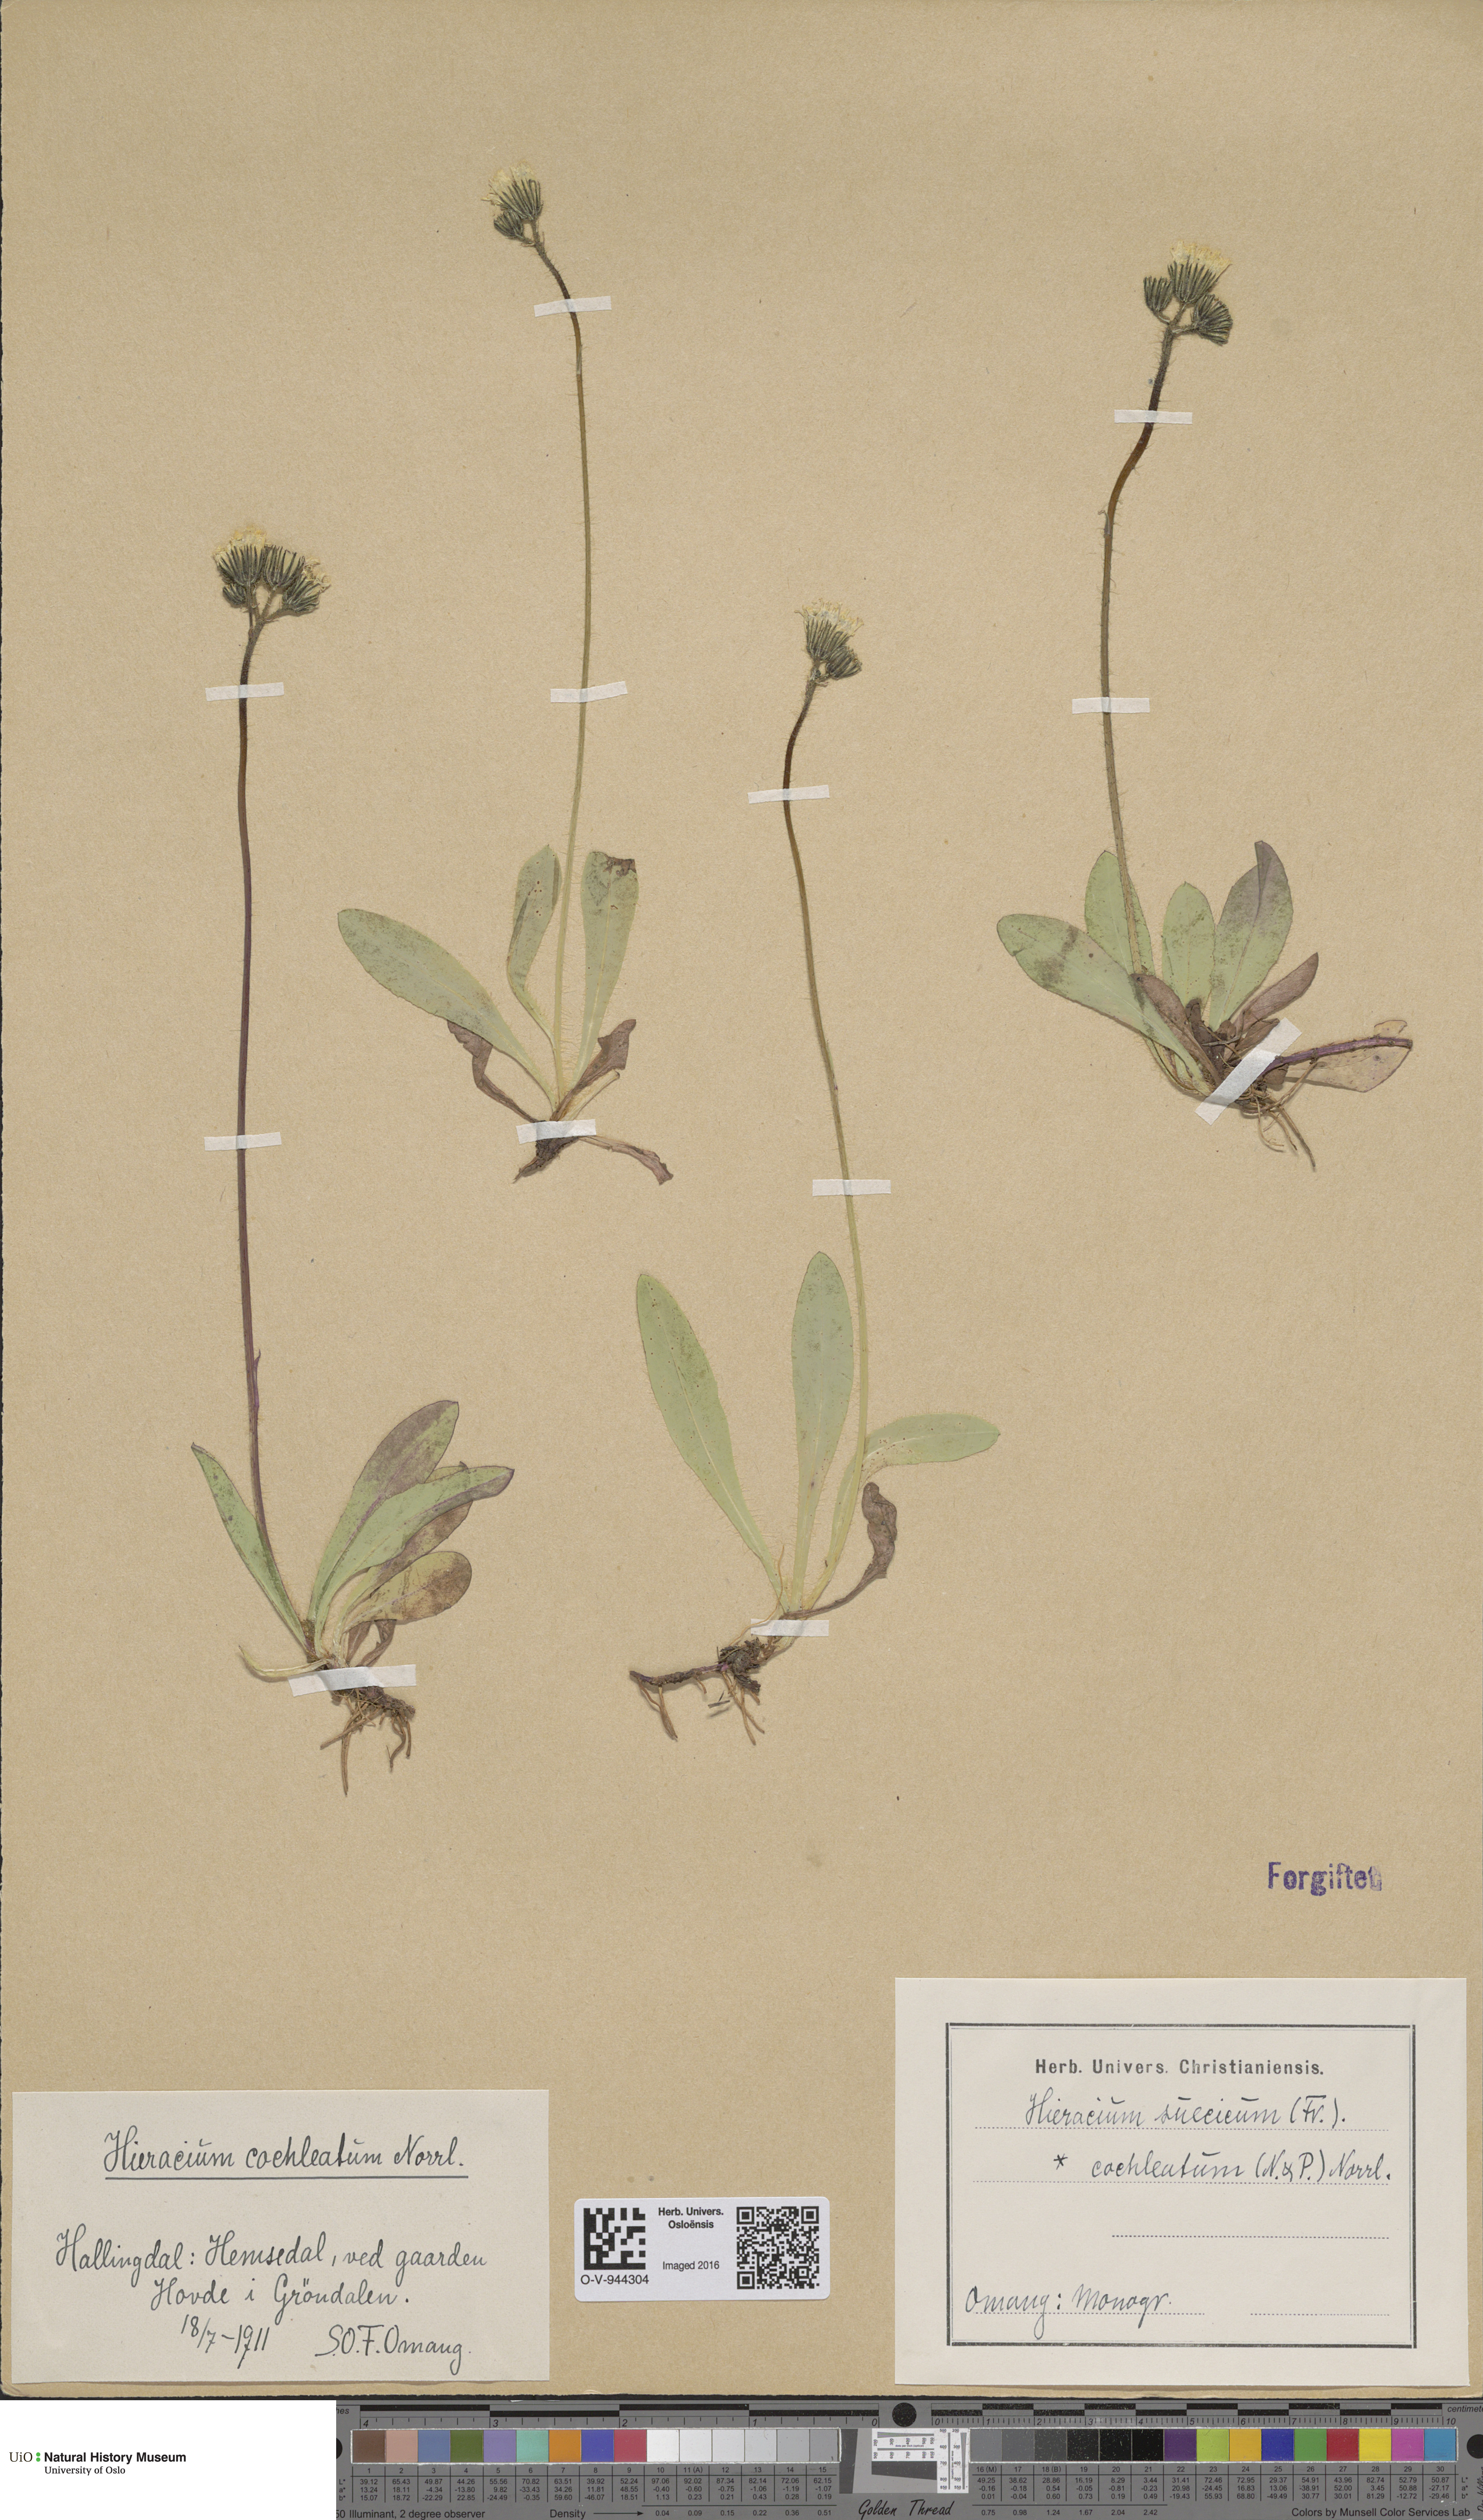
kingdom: Plantae
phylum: Tracheophyta
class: Magnoliopsida
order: Asterales
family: Asteraceae
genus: Pilosella
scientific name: Pilosella dubia
